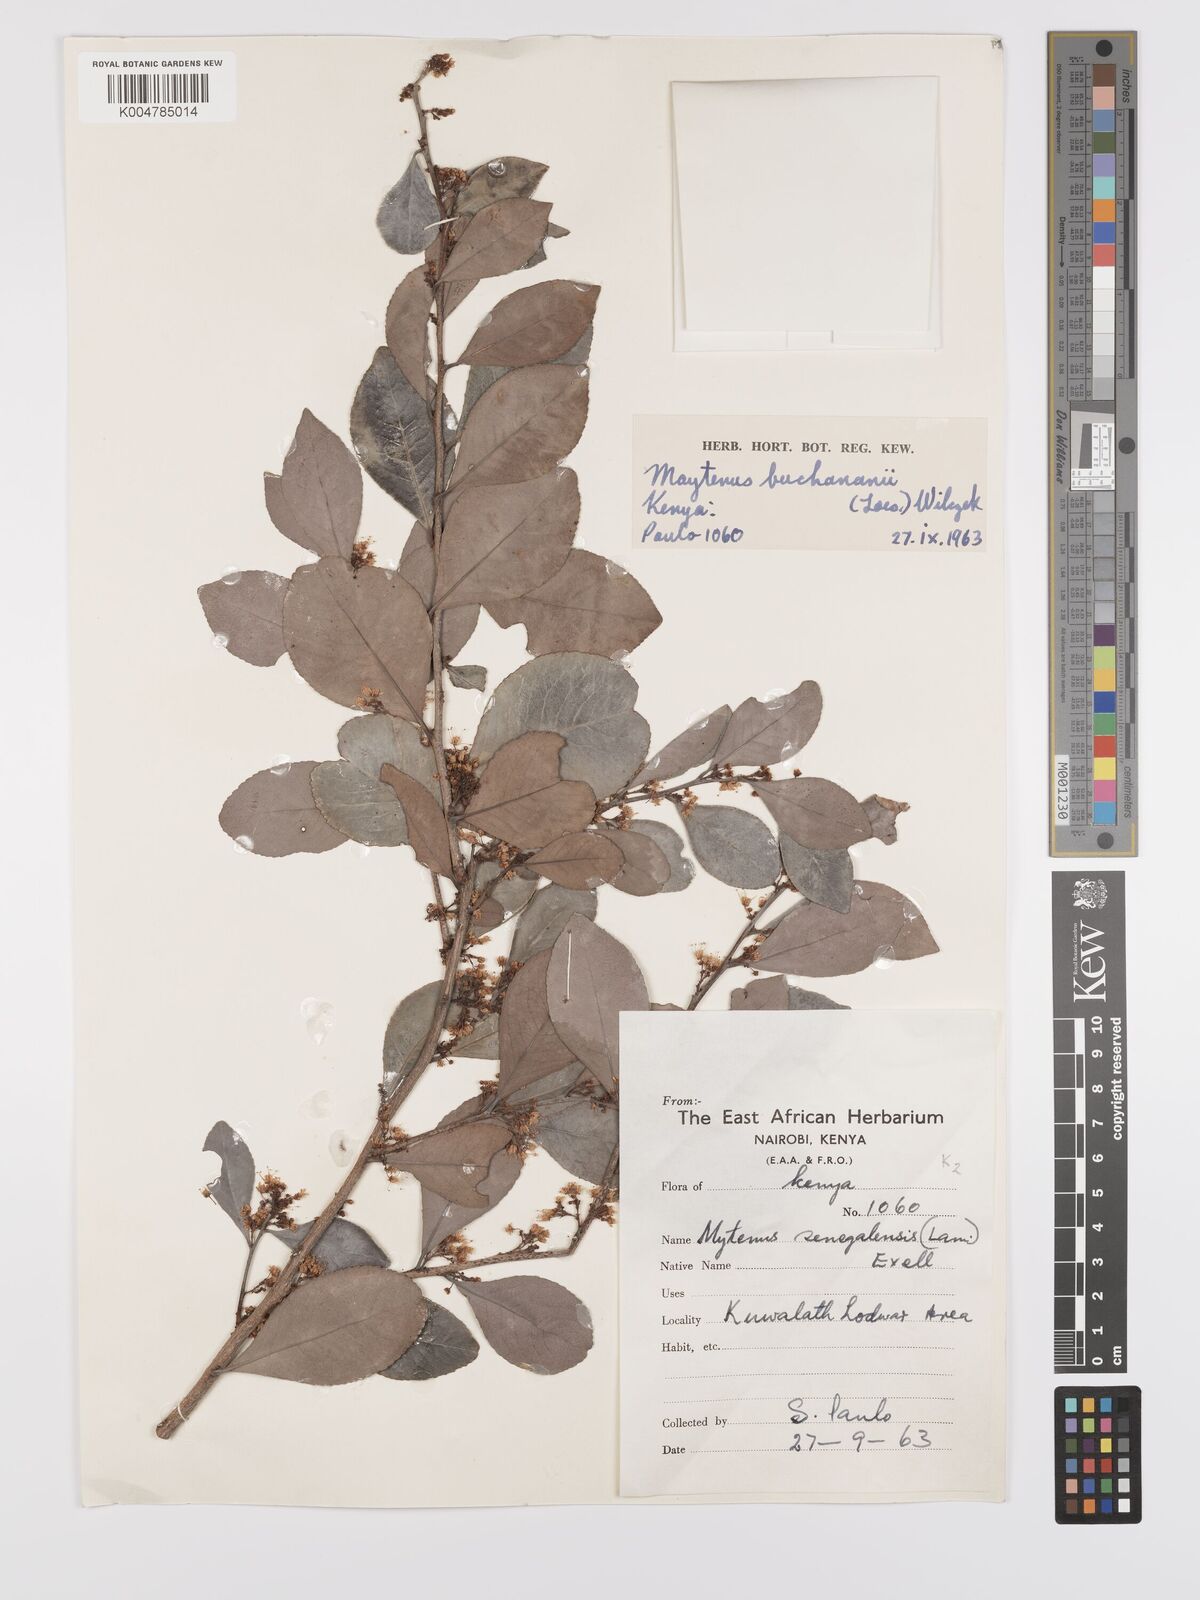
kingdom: Plantae
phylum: Tracheophyta
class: Magnoliopsida
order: Celastrales
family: Celastraceae
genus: Gymnosporia
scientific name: Gymnosporia buchananii
